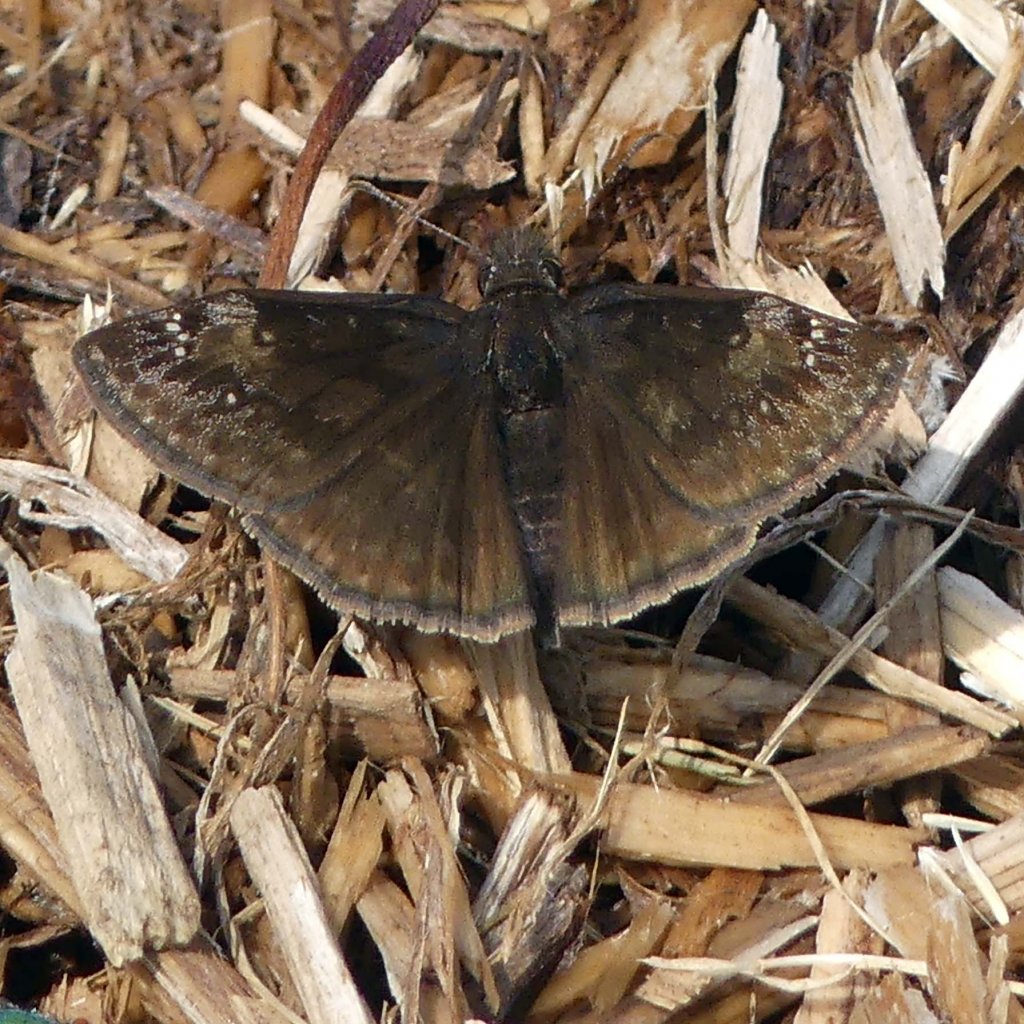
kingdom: Animalia
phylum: Arthropoda
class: Insecta
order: Lepidoptera
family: Hesperiidae
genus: Gesta
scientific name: Gesta
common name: Wild Indigo Duskywing
